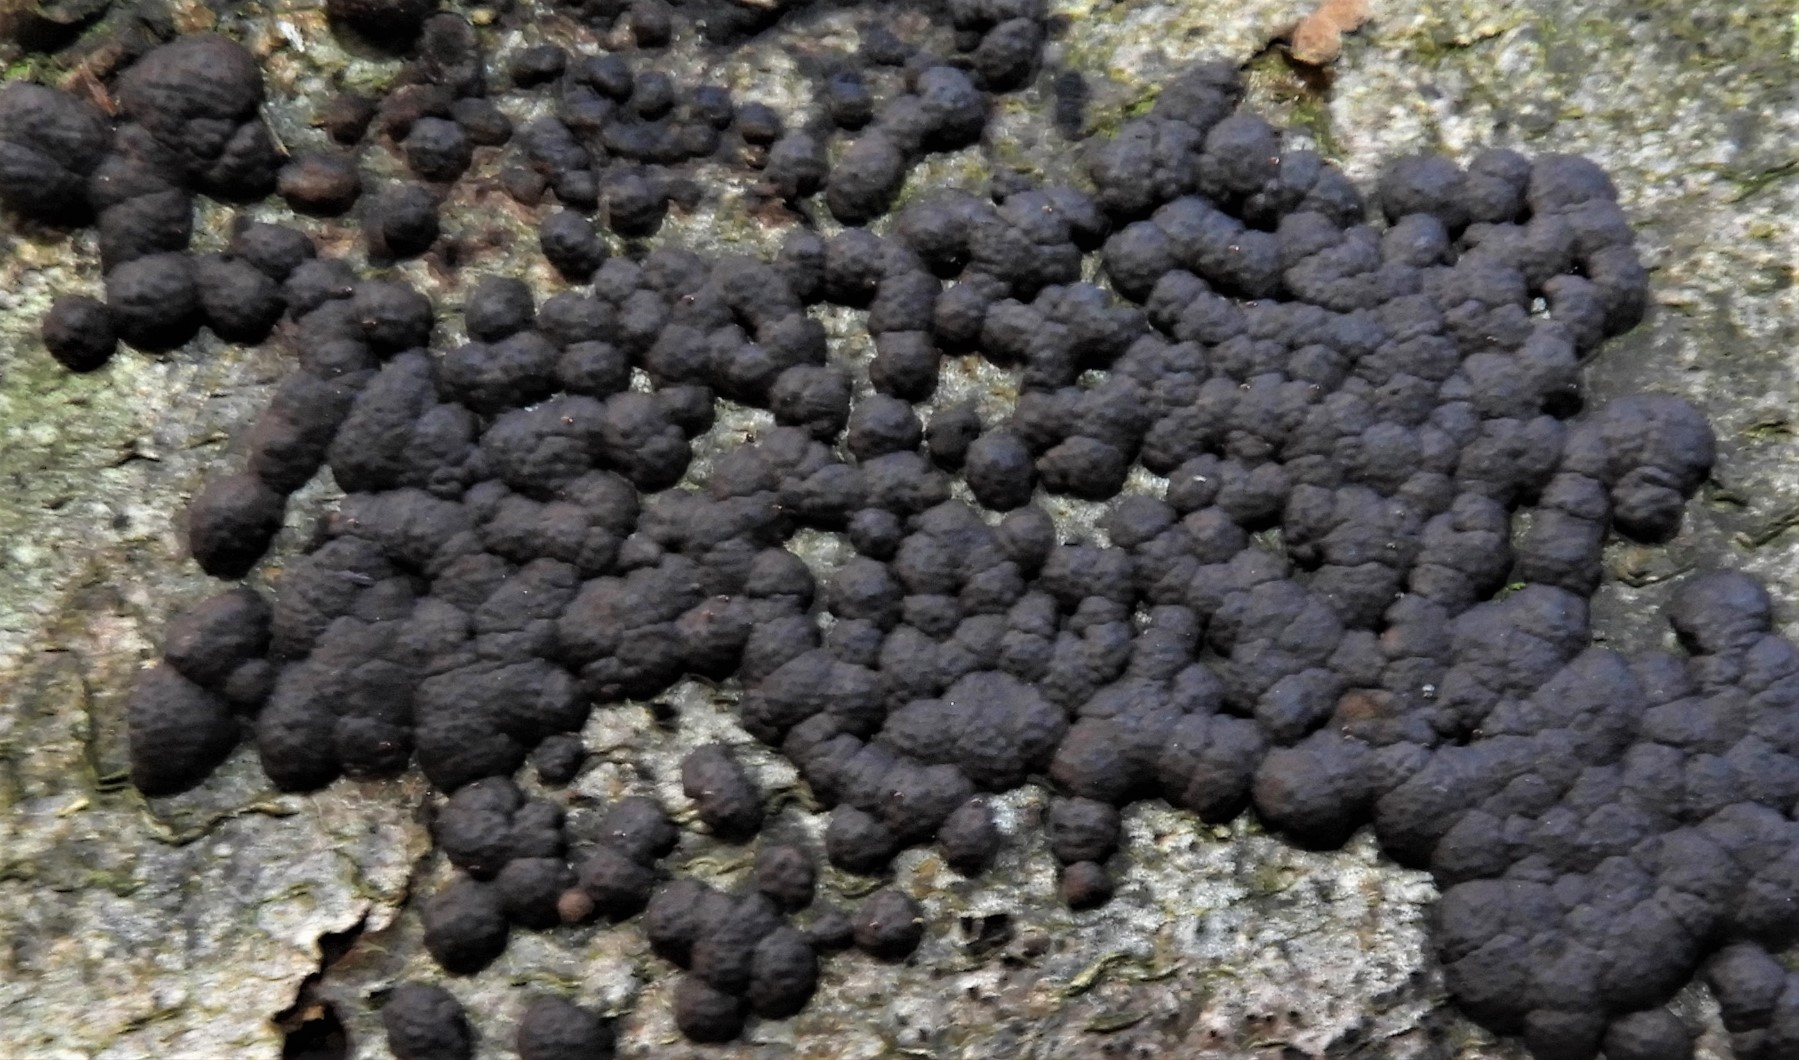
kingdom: Fungi
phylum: Ascomycota
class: Sordariomycetes
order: Xylariales
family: Hypoxylaceae
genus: Jackrogersella
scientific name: Jackrogersella cohaerens
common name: sammenflydende kulbær
